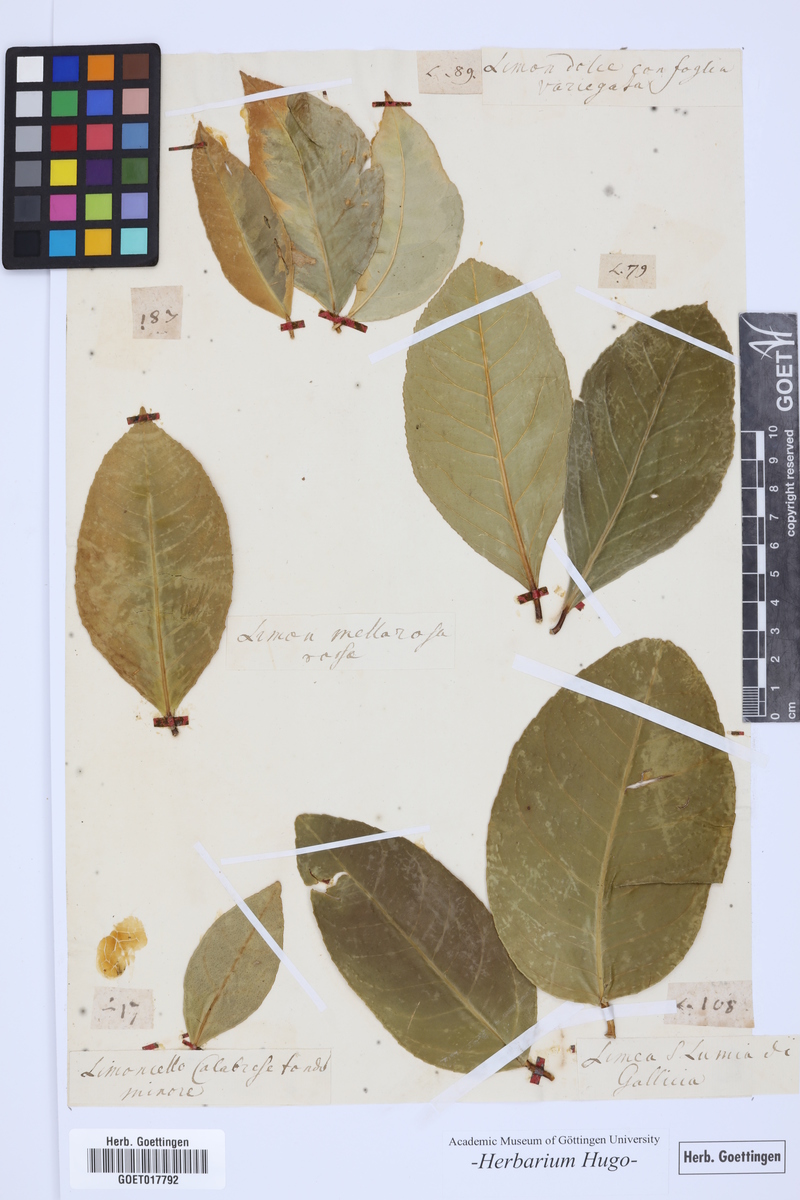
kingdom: Plantae
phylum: Tracheophyta
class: Magnoliopsida
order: Sapindales
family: Rutaceae
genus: Citrus
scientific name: Citrus
